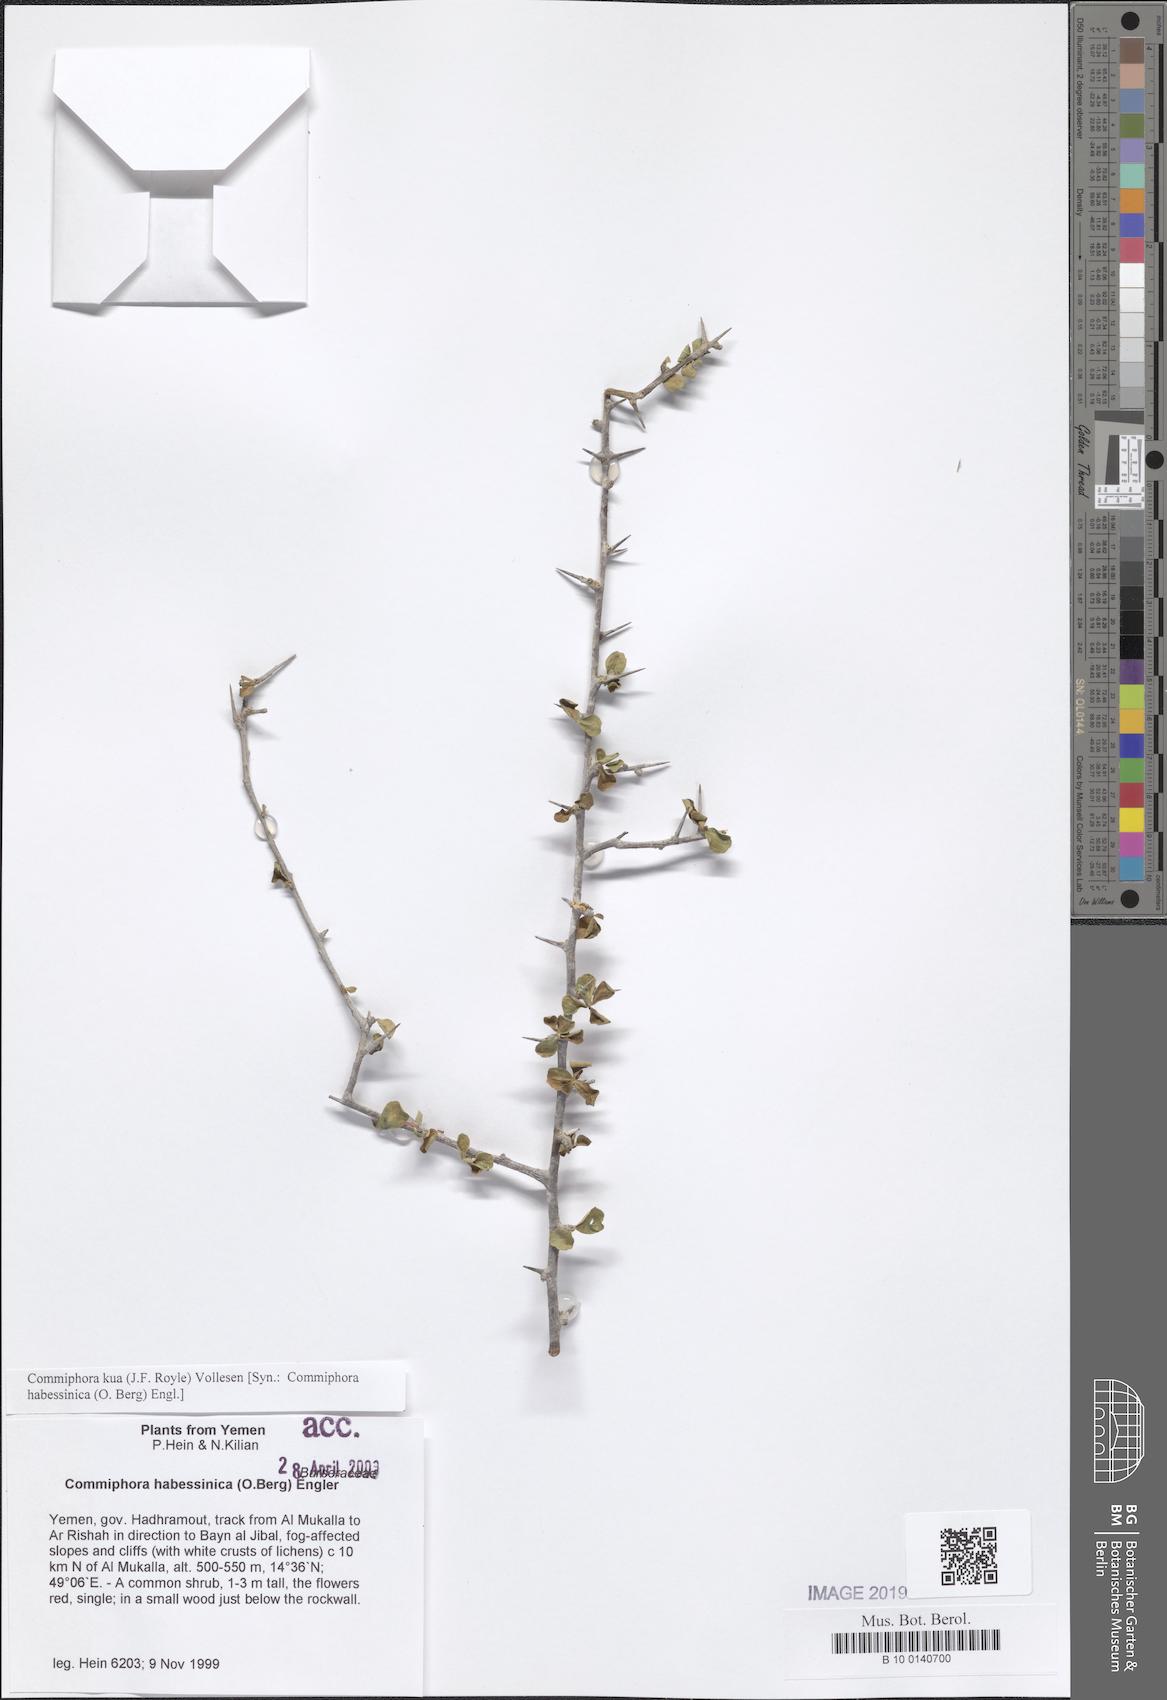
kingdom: Plantae
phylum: Tracheophyta
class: Magnoliopsida
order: Sapindales
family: Burseraceae
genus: Commiphora
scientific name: Commiphora kua
